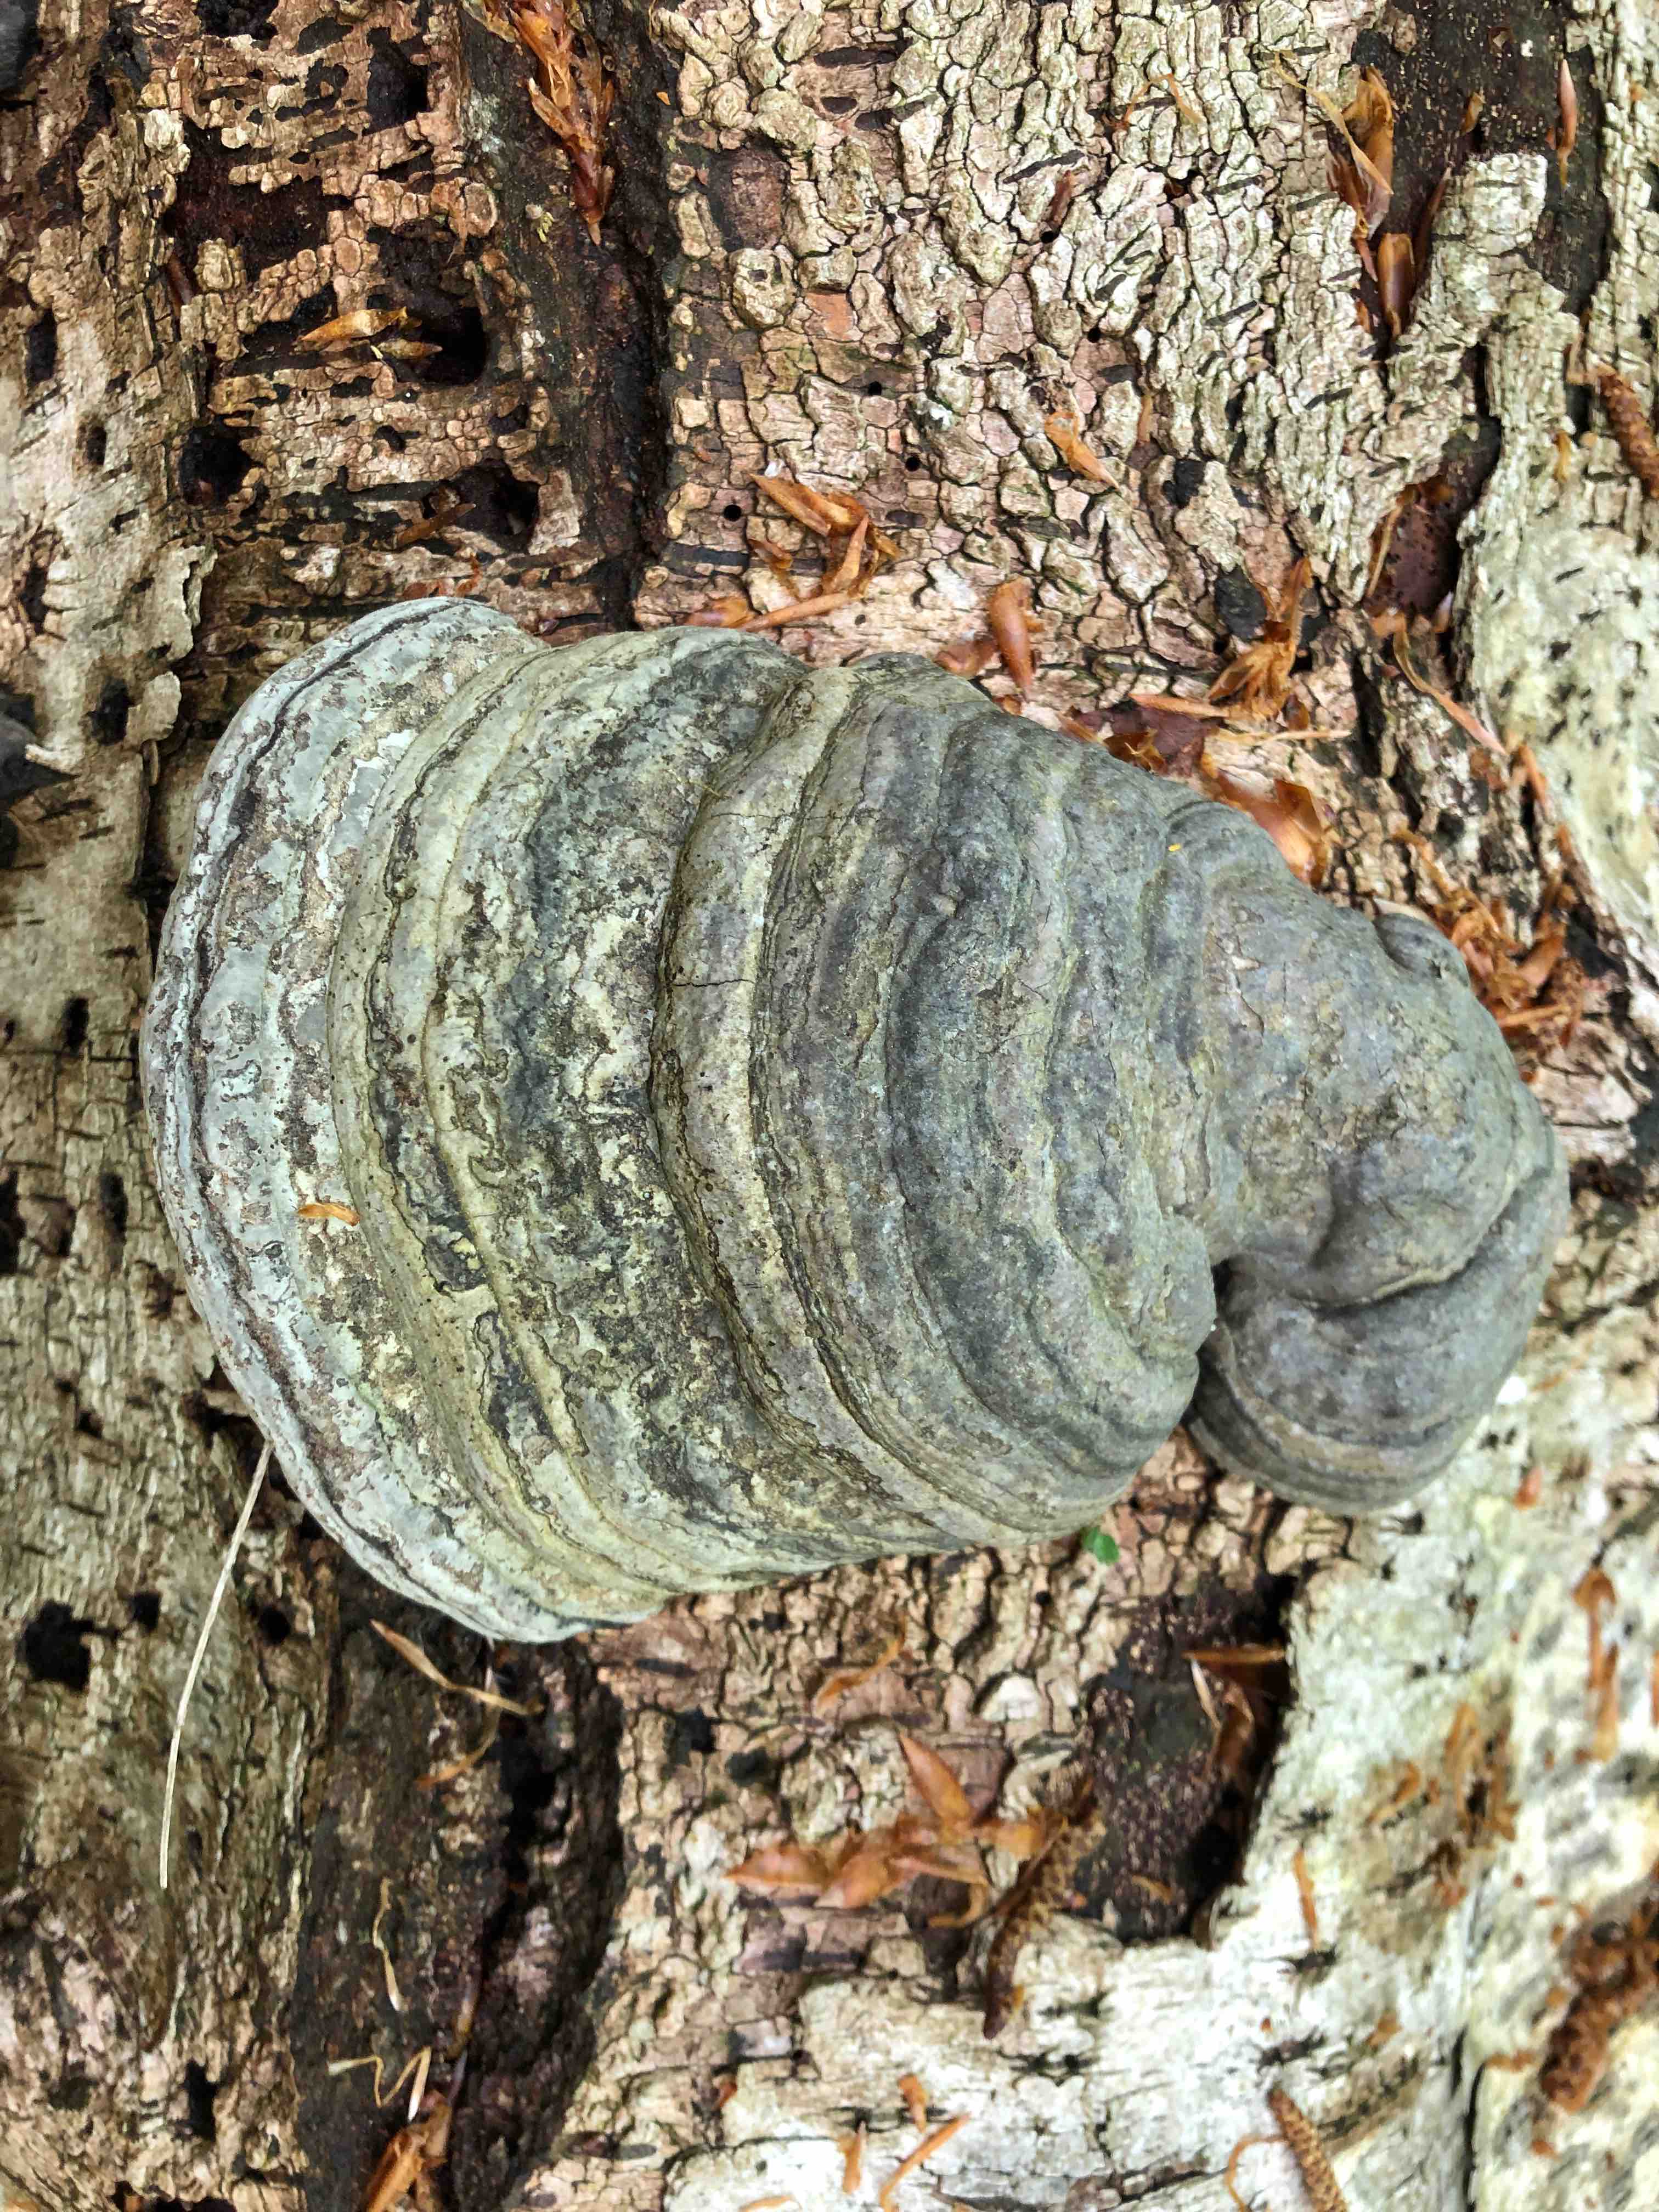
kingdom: Fungi
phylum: Basidiomycota
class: Agaricomycetes
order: Polyporales
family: Polyporaceae
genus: Fomes
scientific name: Fomes fomentarius
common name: tøndersvamp
